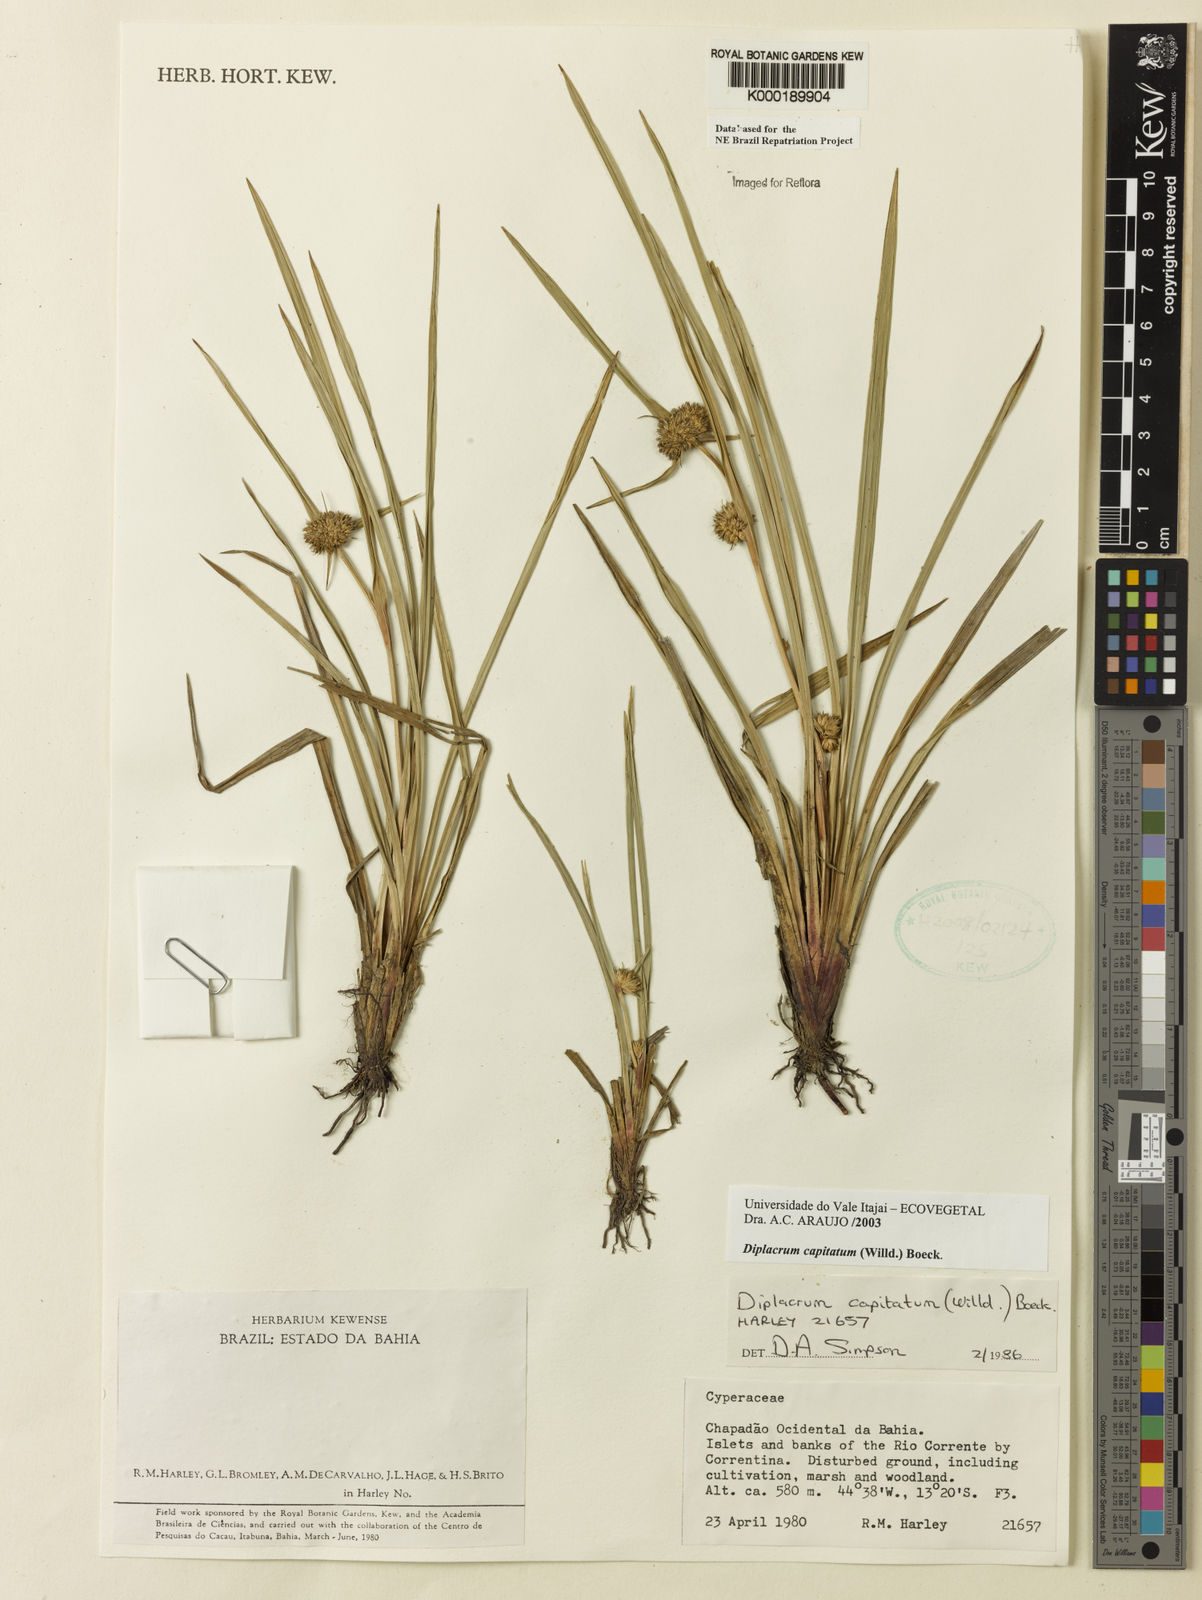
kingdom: Plantae
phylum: Tracheophyta
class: Liliopsida
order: Poales
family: Cyperaceae
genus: Diplacrum
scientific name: Diplacrum capitatum
